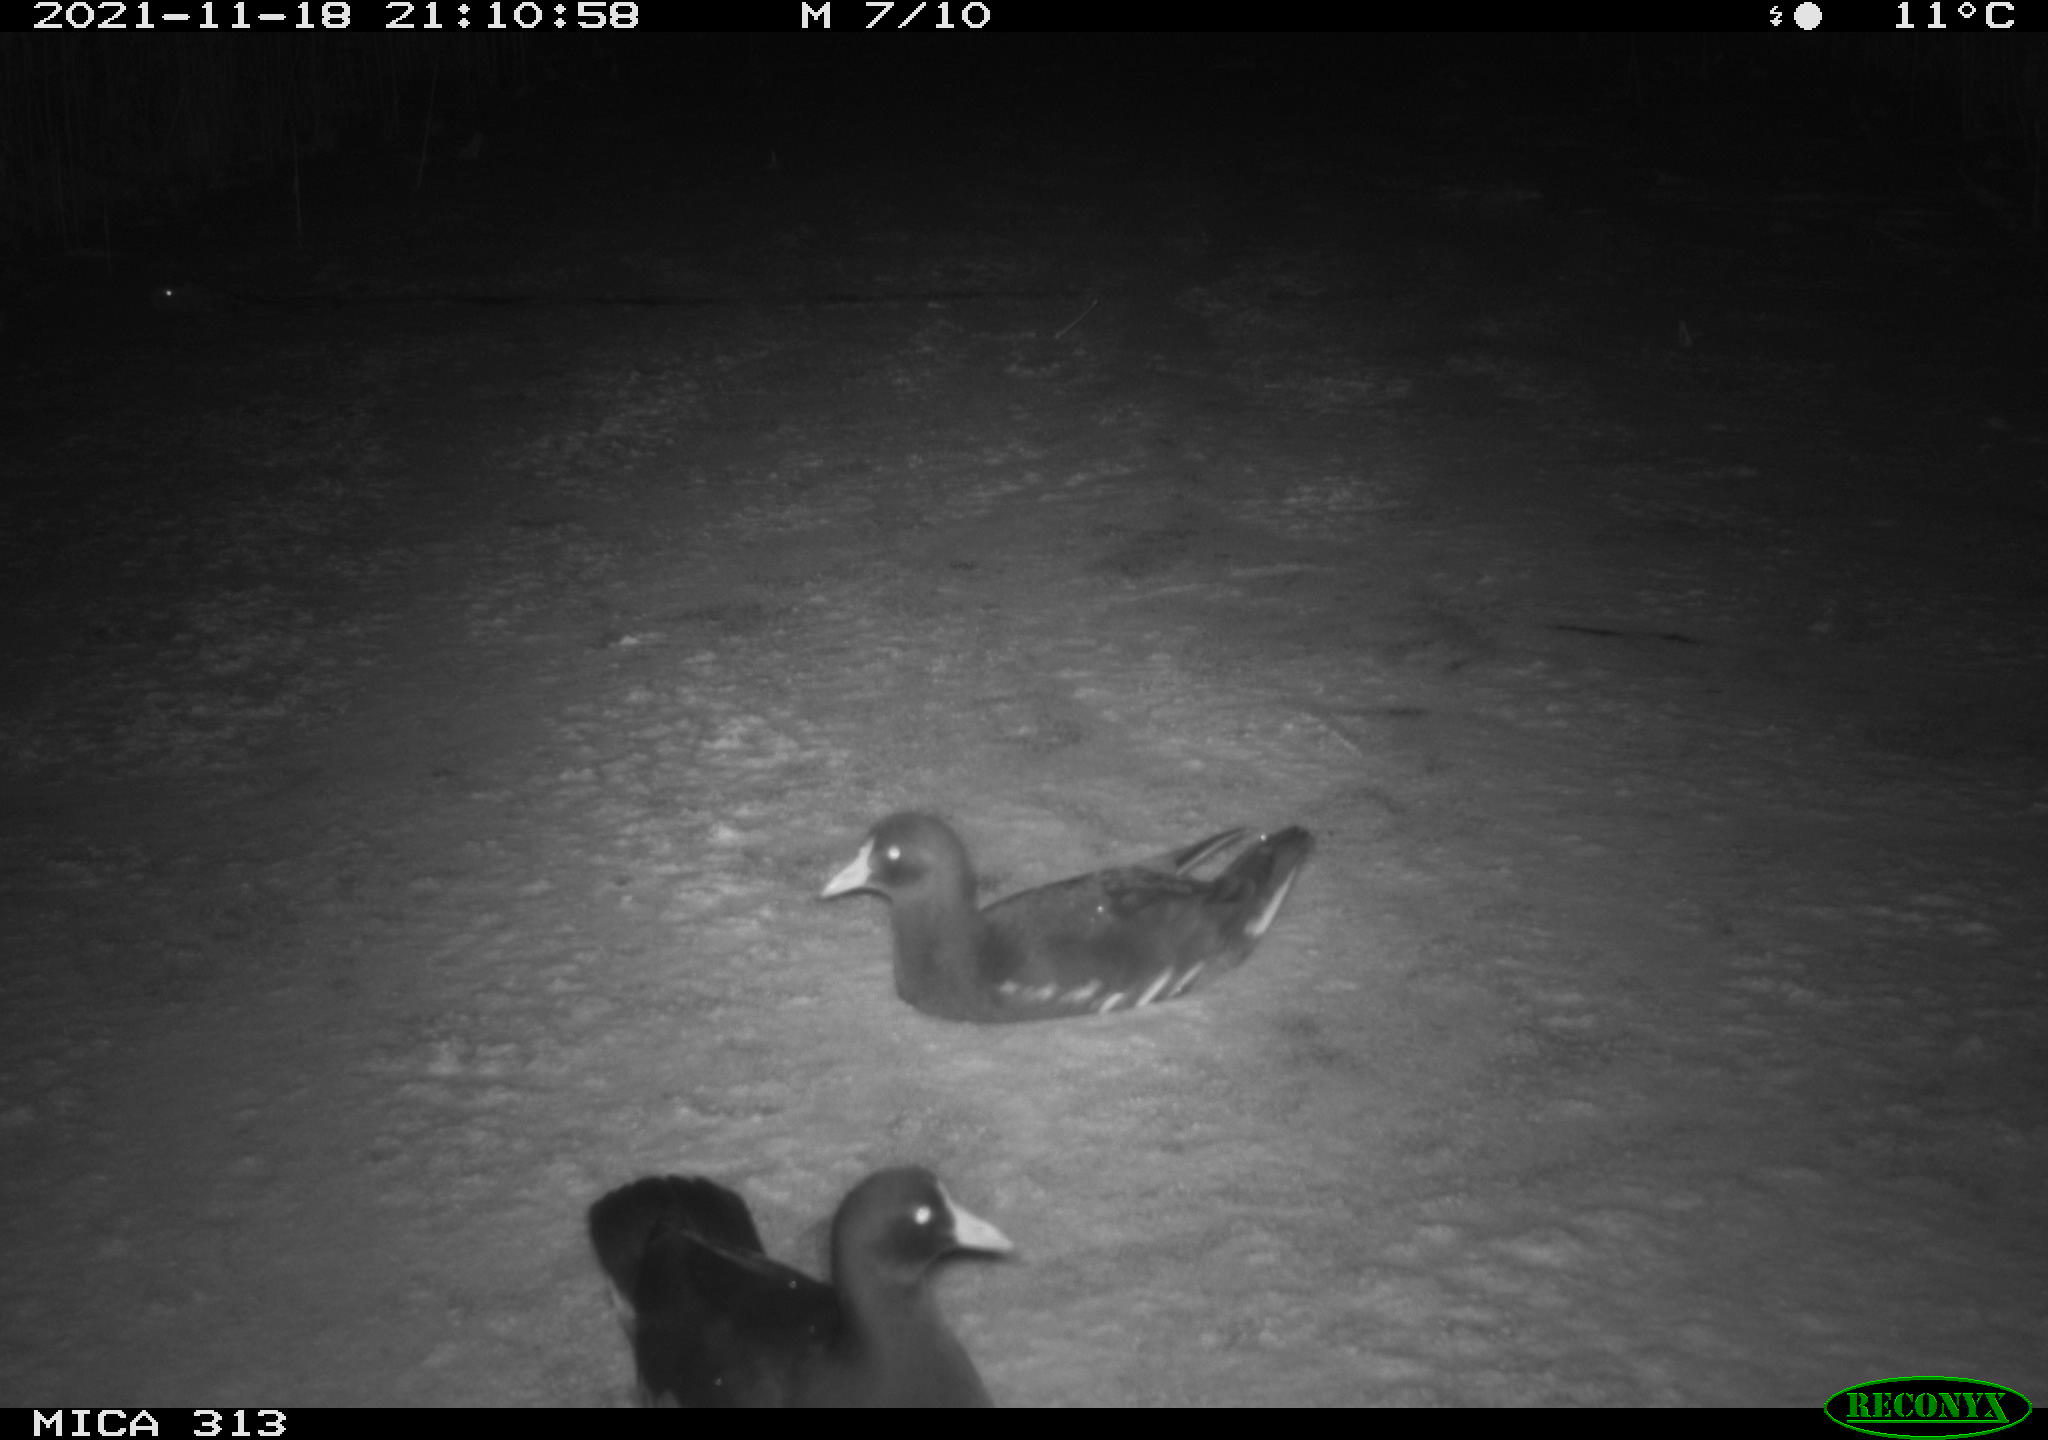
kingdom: Animalia
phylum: Chordata
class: Mammalia
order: Rodentia
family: Muridae
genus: Rattus
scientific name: Rattus norvegicus
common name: Brown rat
